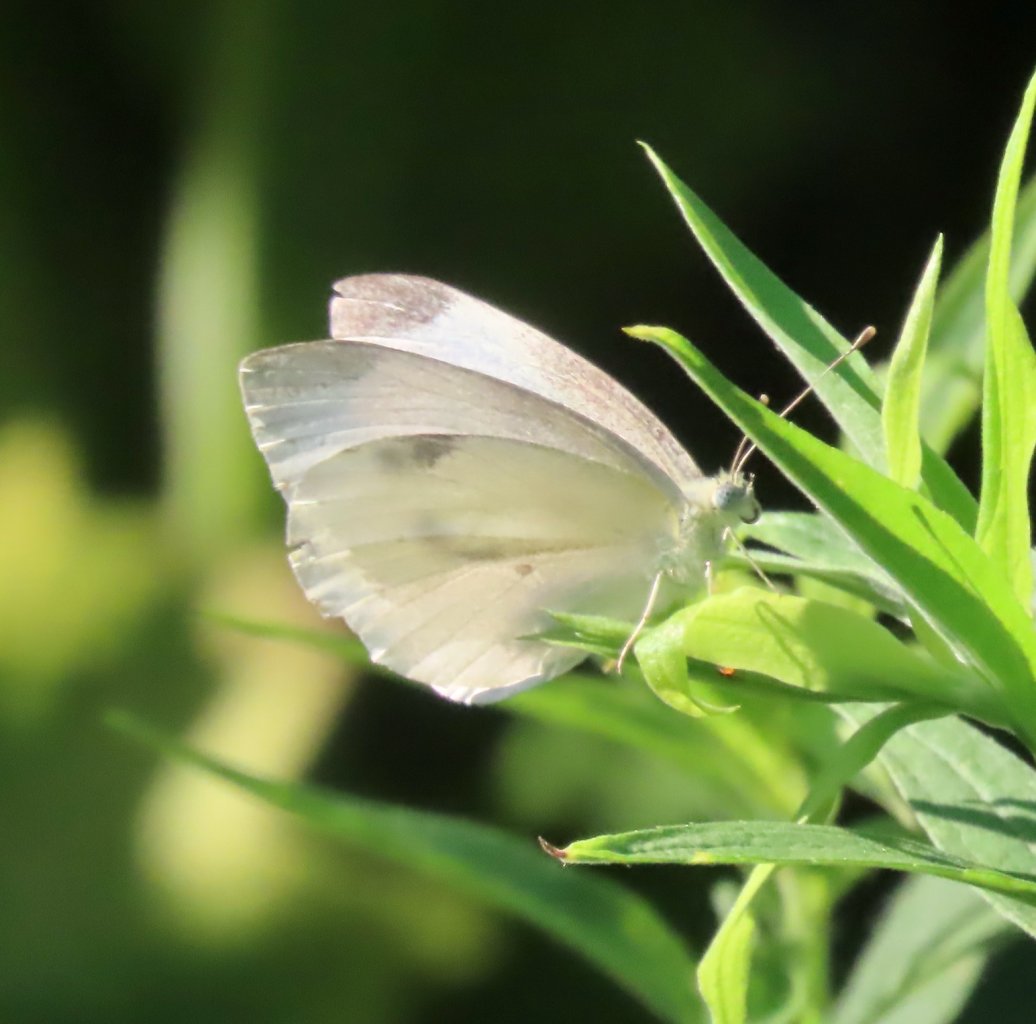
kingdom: Animalia
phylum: Arthropoda
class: Insecta
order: Lepidoptera
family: Pieridae
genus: Pieris
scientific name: Pieris rapae
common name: Cabbage White
